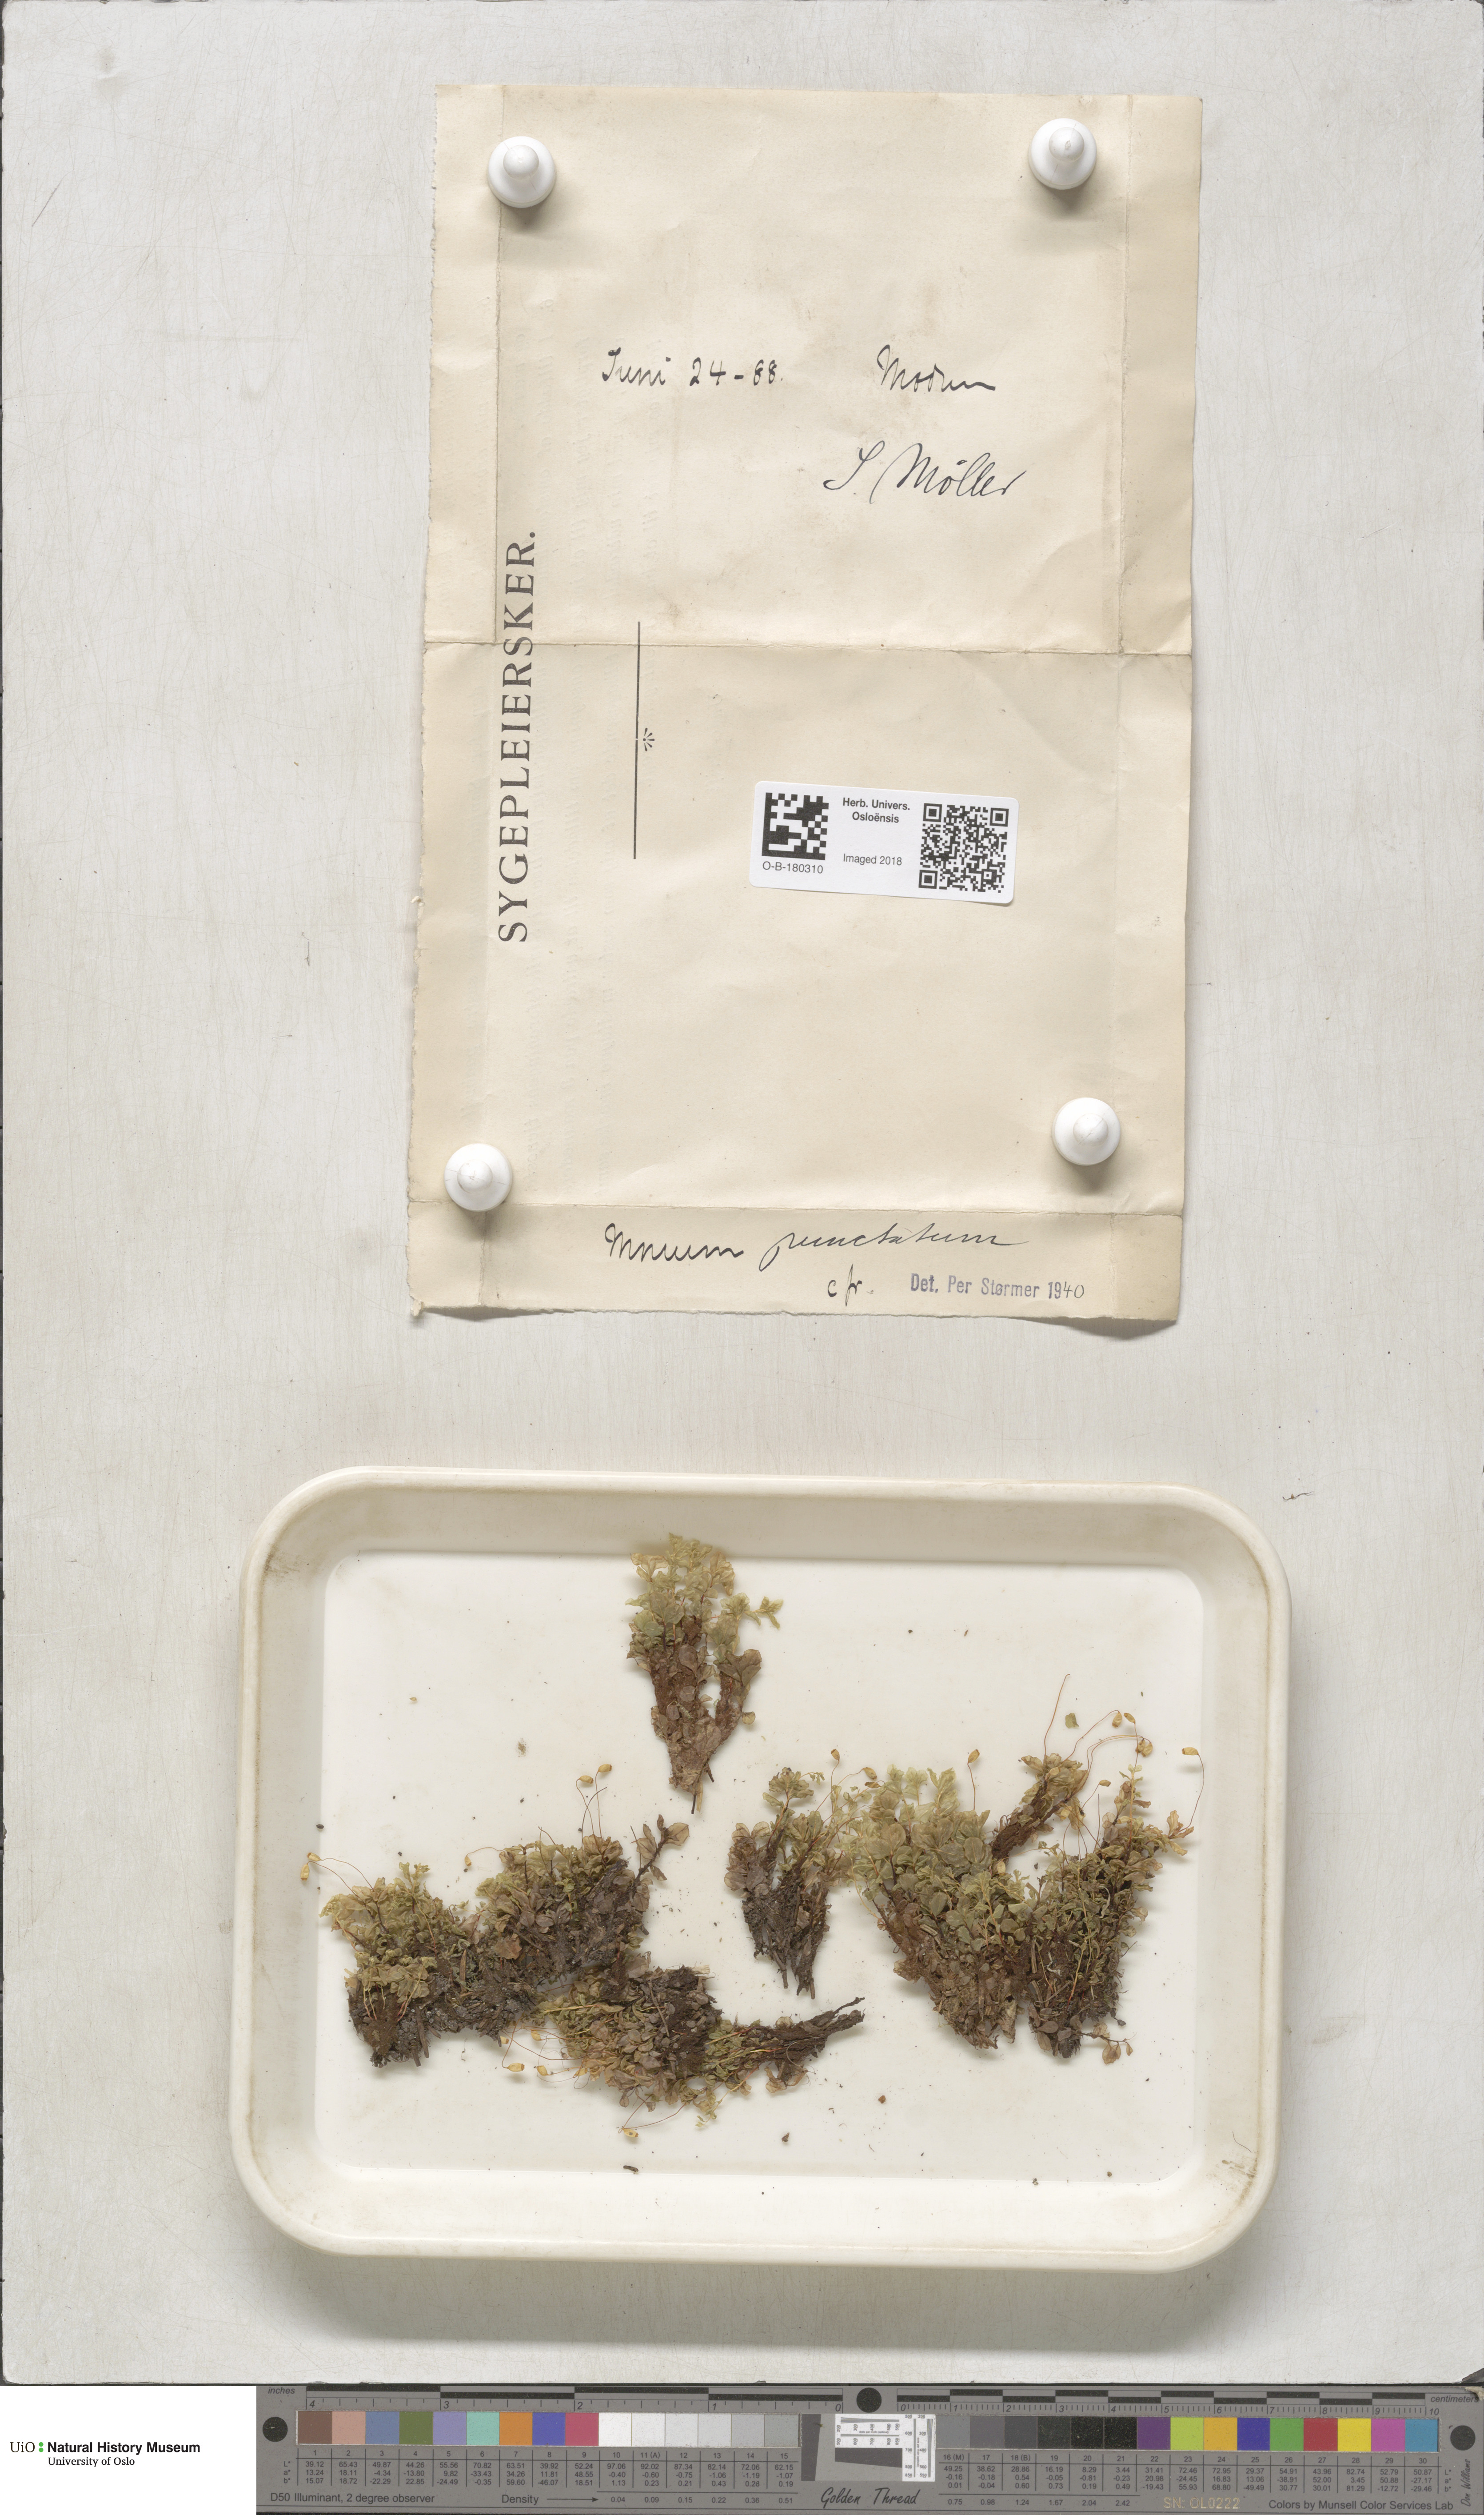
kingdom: Plantae
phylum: Bryophyta
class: Bryopsida
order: Bryales
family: Mniaceae
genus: Rhizomnium
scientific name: Rhizomnium punctatum
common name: Dotted leafy moss
